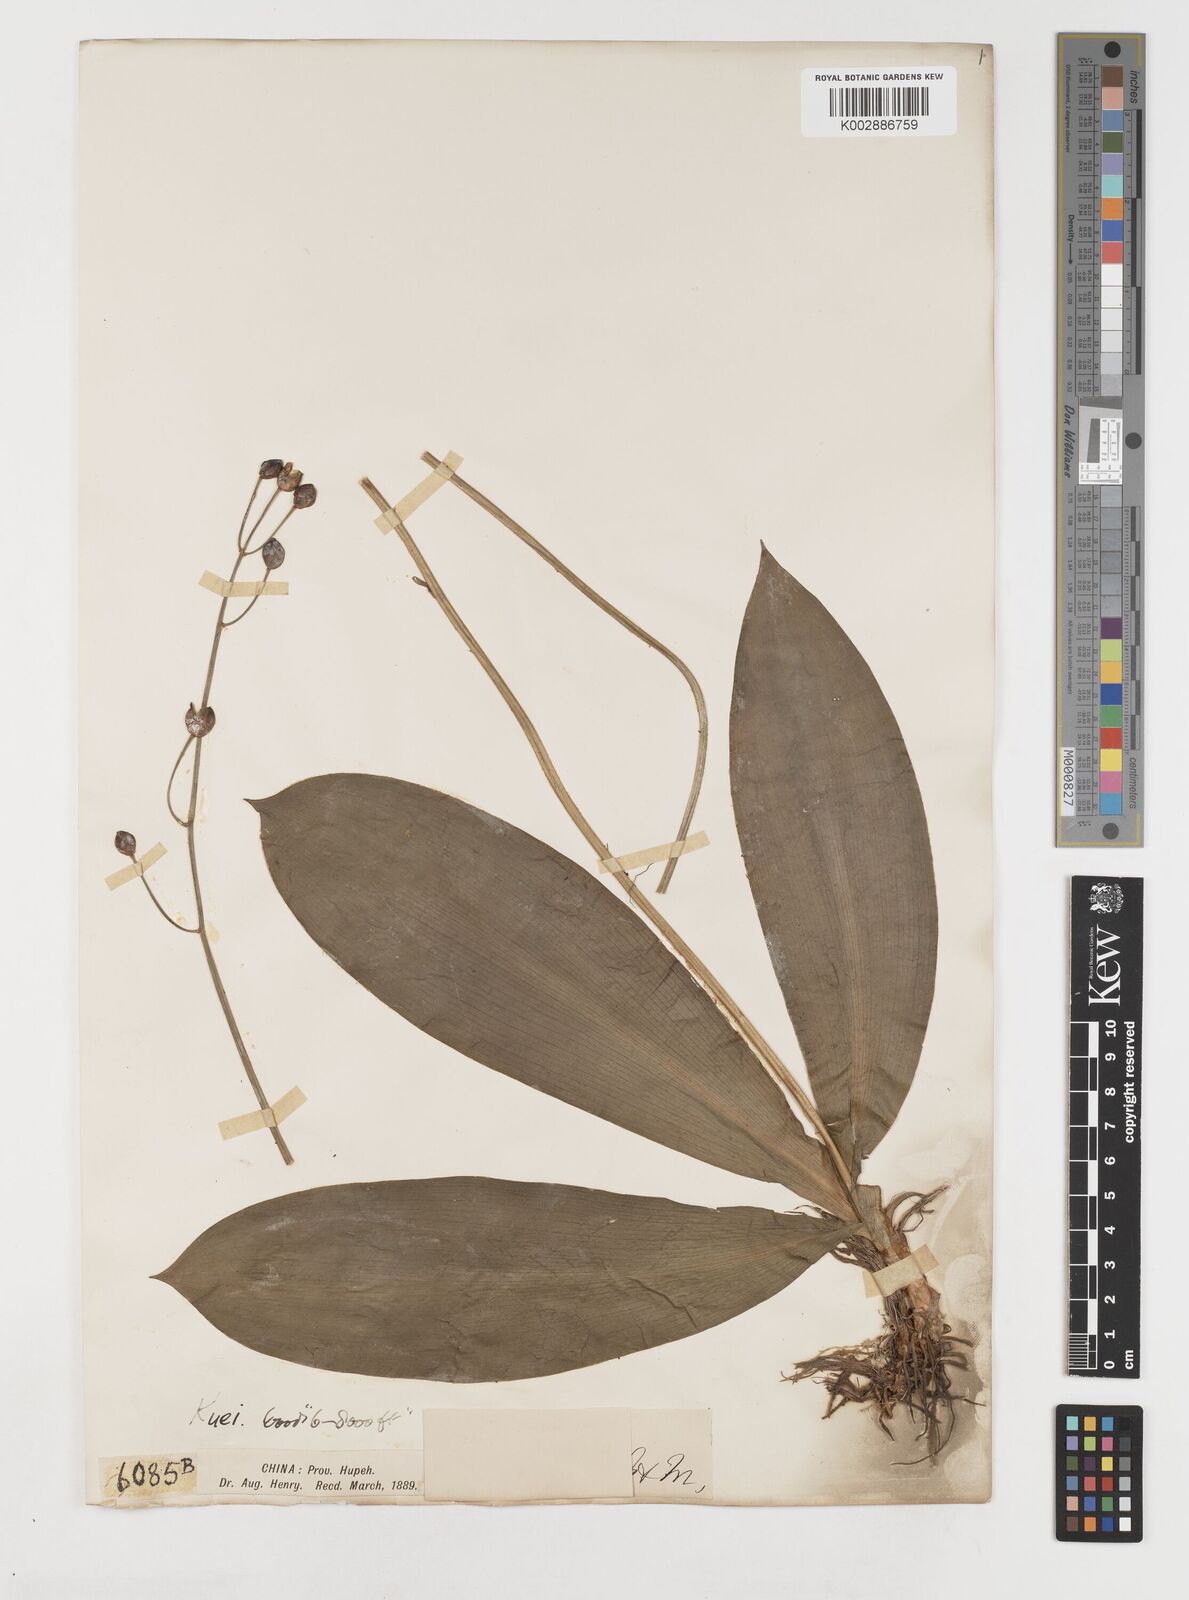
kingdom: Plantae
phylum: Tracheophyta
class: Liliopsida
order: Liliales
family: Liliaceae
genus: Clintonia
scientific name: Clintonia udensis
